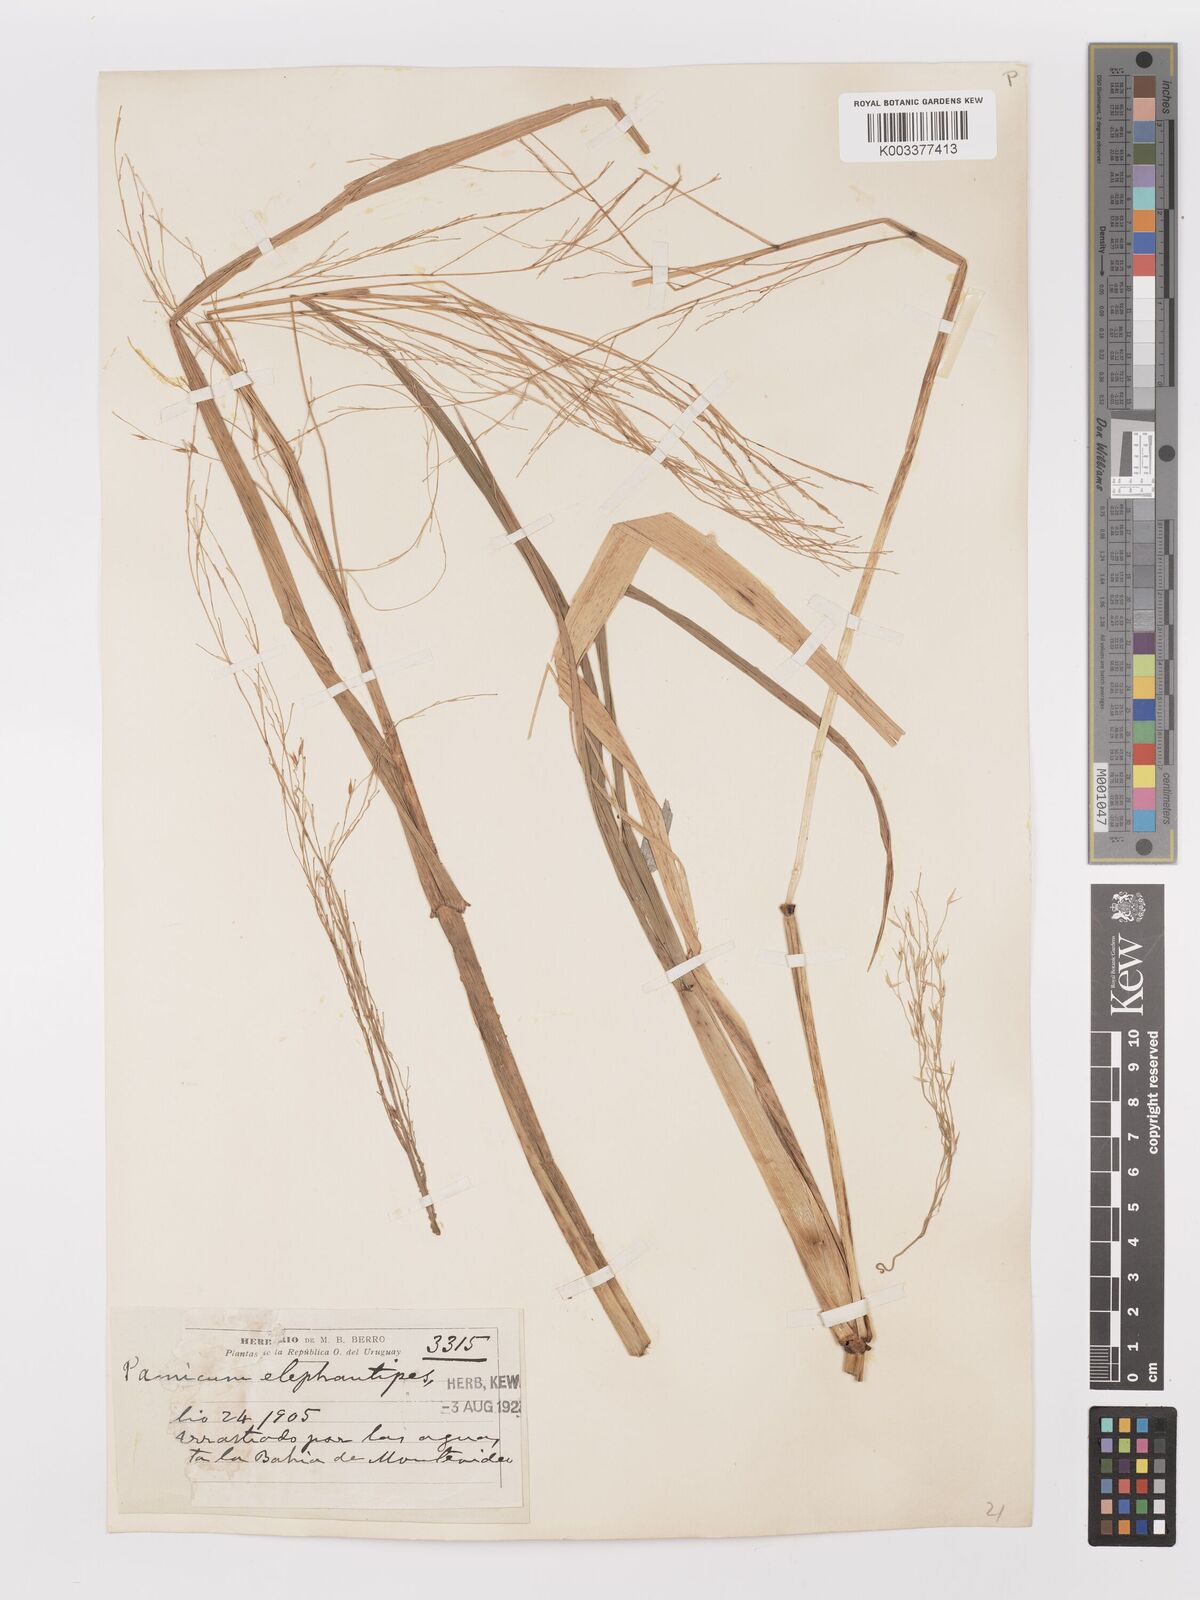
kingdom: Plantae
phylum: Tracheophyta
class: Liliopsida
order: Poales
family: Poaceae
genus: Panicum
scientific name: Panicum
